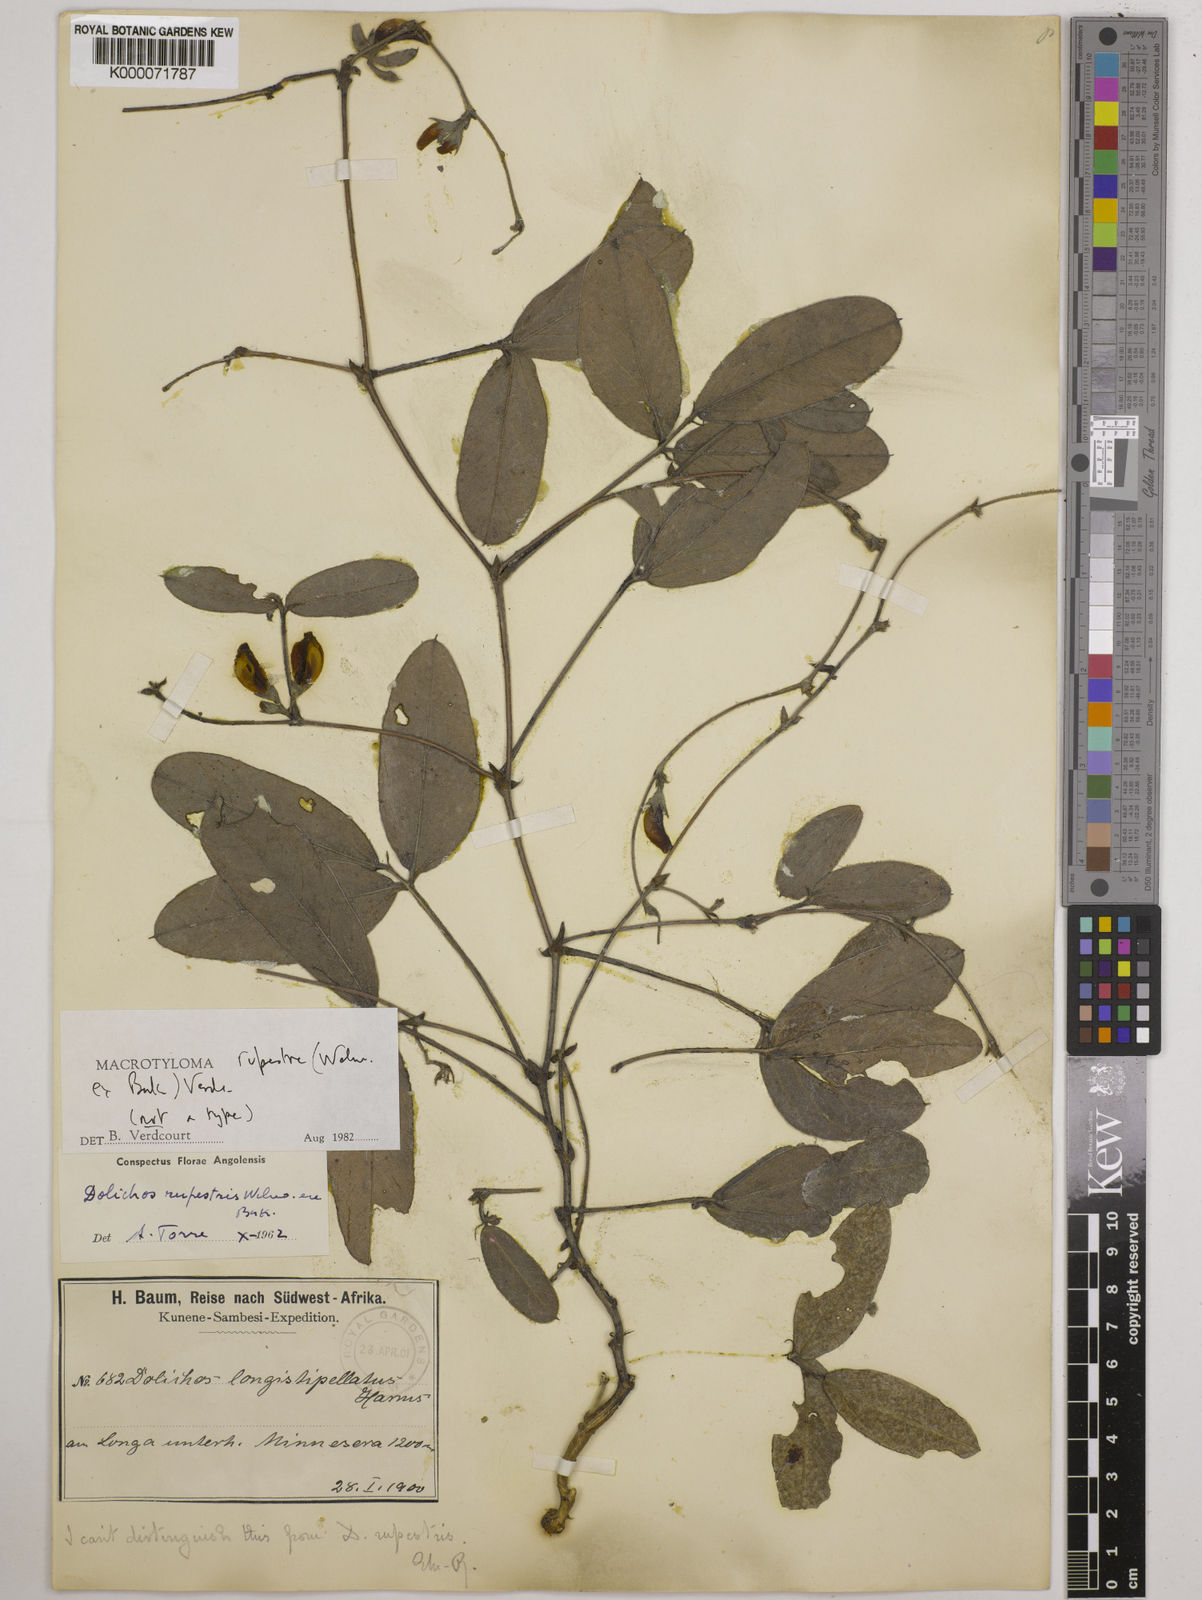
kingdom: Plantae
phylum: Tracheophyta
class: Magnoliopsida
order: Fabales
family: Fabaceae
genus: Macrotyloma
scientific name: Macrotyloma rupestre
